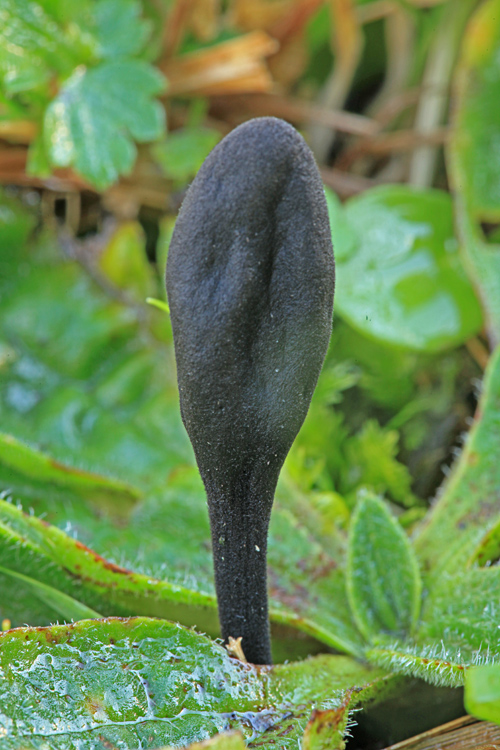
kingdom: Fungi
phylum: Ascomycota
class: Geoglossomycetes
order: Geoglossales
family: Geoglossaceae
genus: Trichoglossum
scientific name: Trichoglossum hirsutum
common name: håret jordtunge
